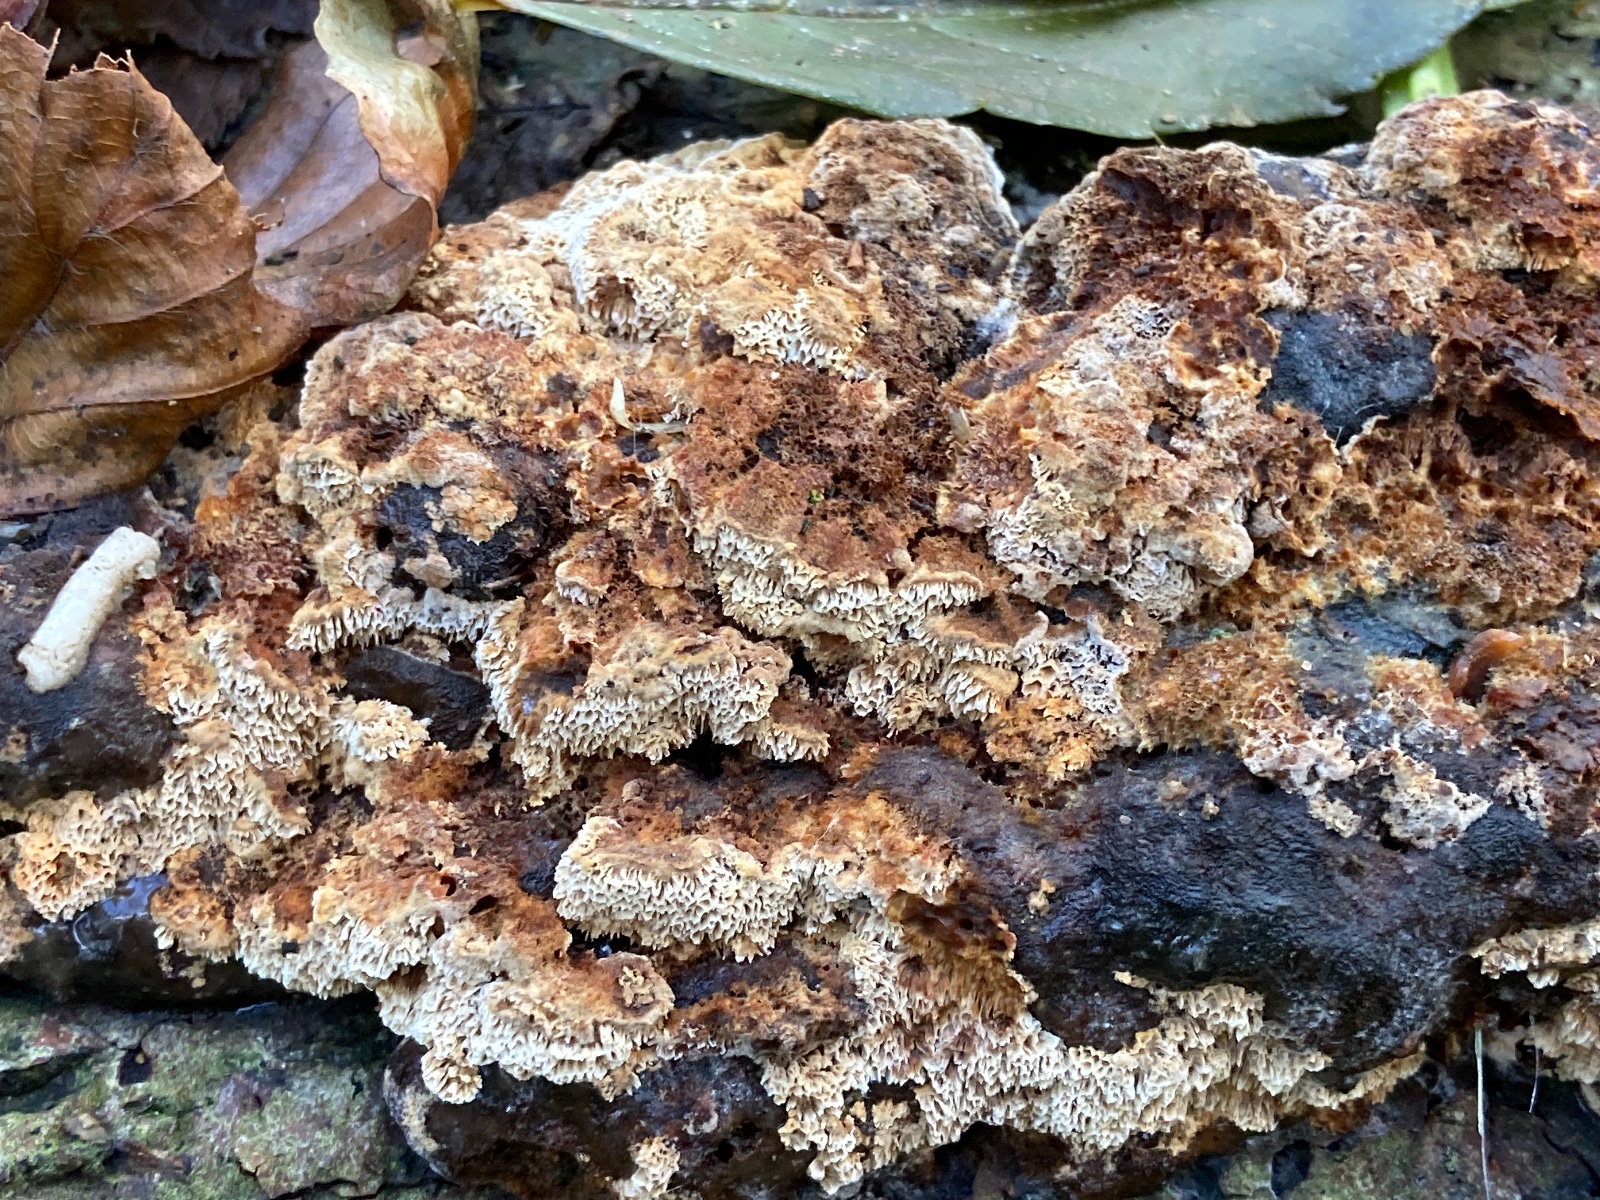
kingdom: Fungi
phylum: Basidiomycota
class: Agaricomycetes
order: Hymenochaetales
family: Hymenochaetaceae
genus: Mensularia
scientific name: Mensularia nodulosa
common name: bøge-spejlporesvamp
